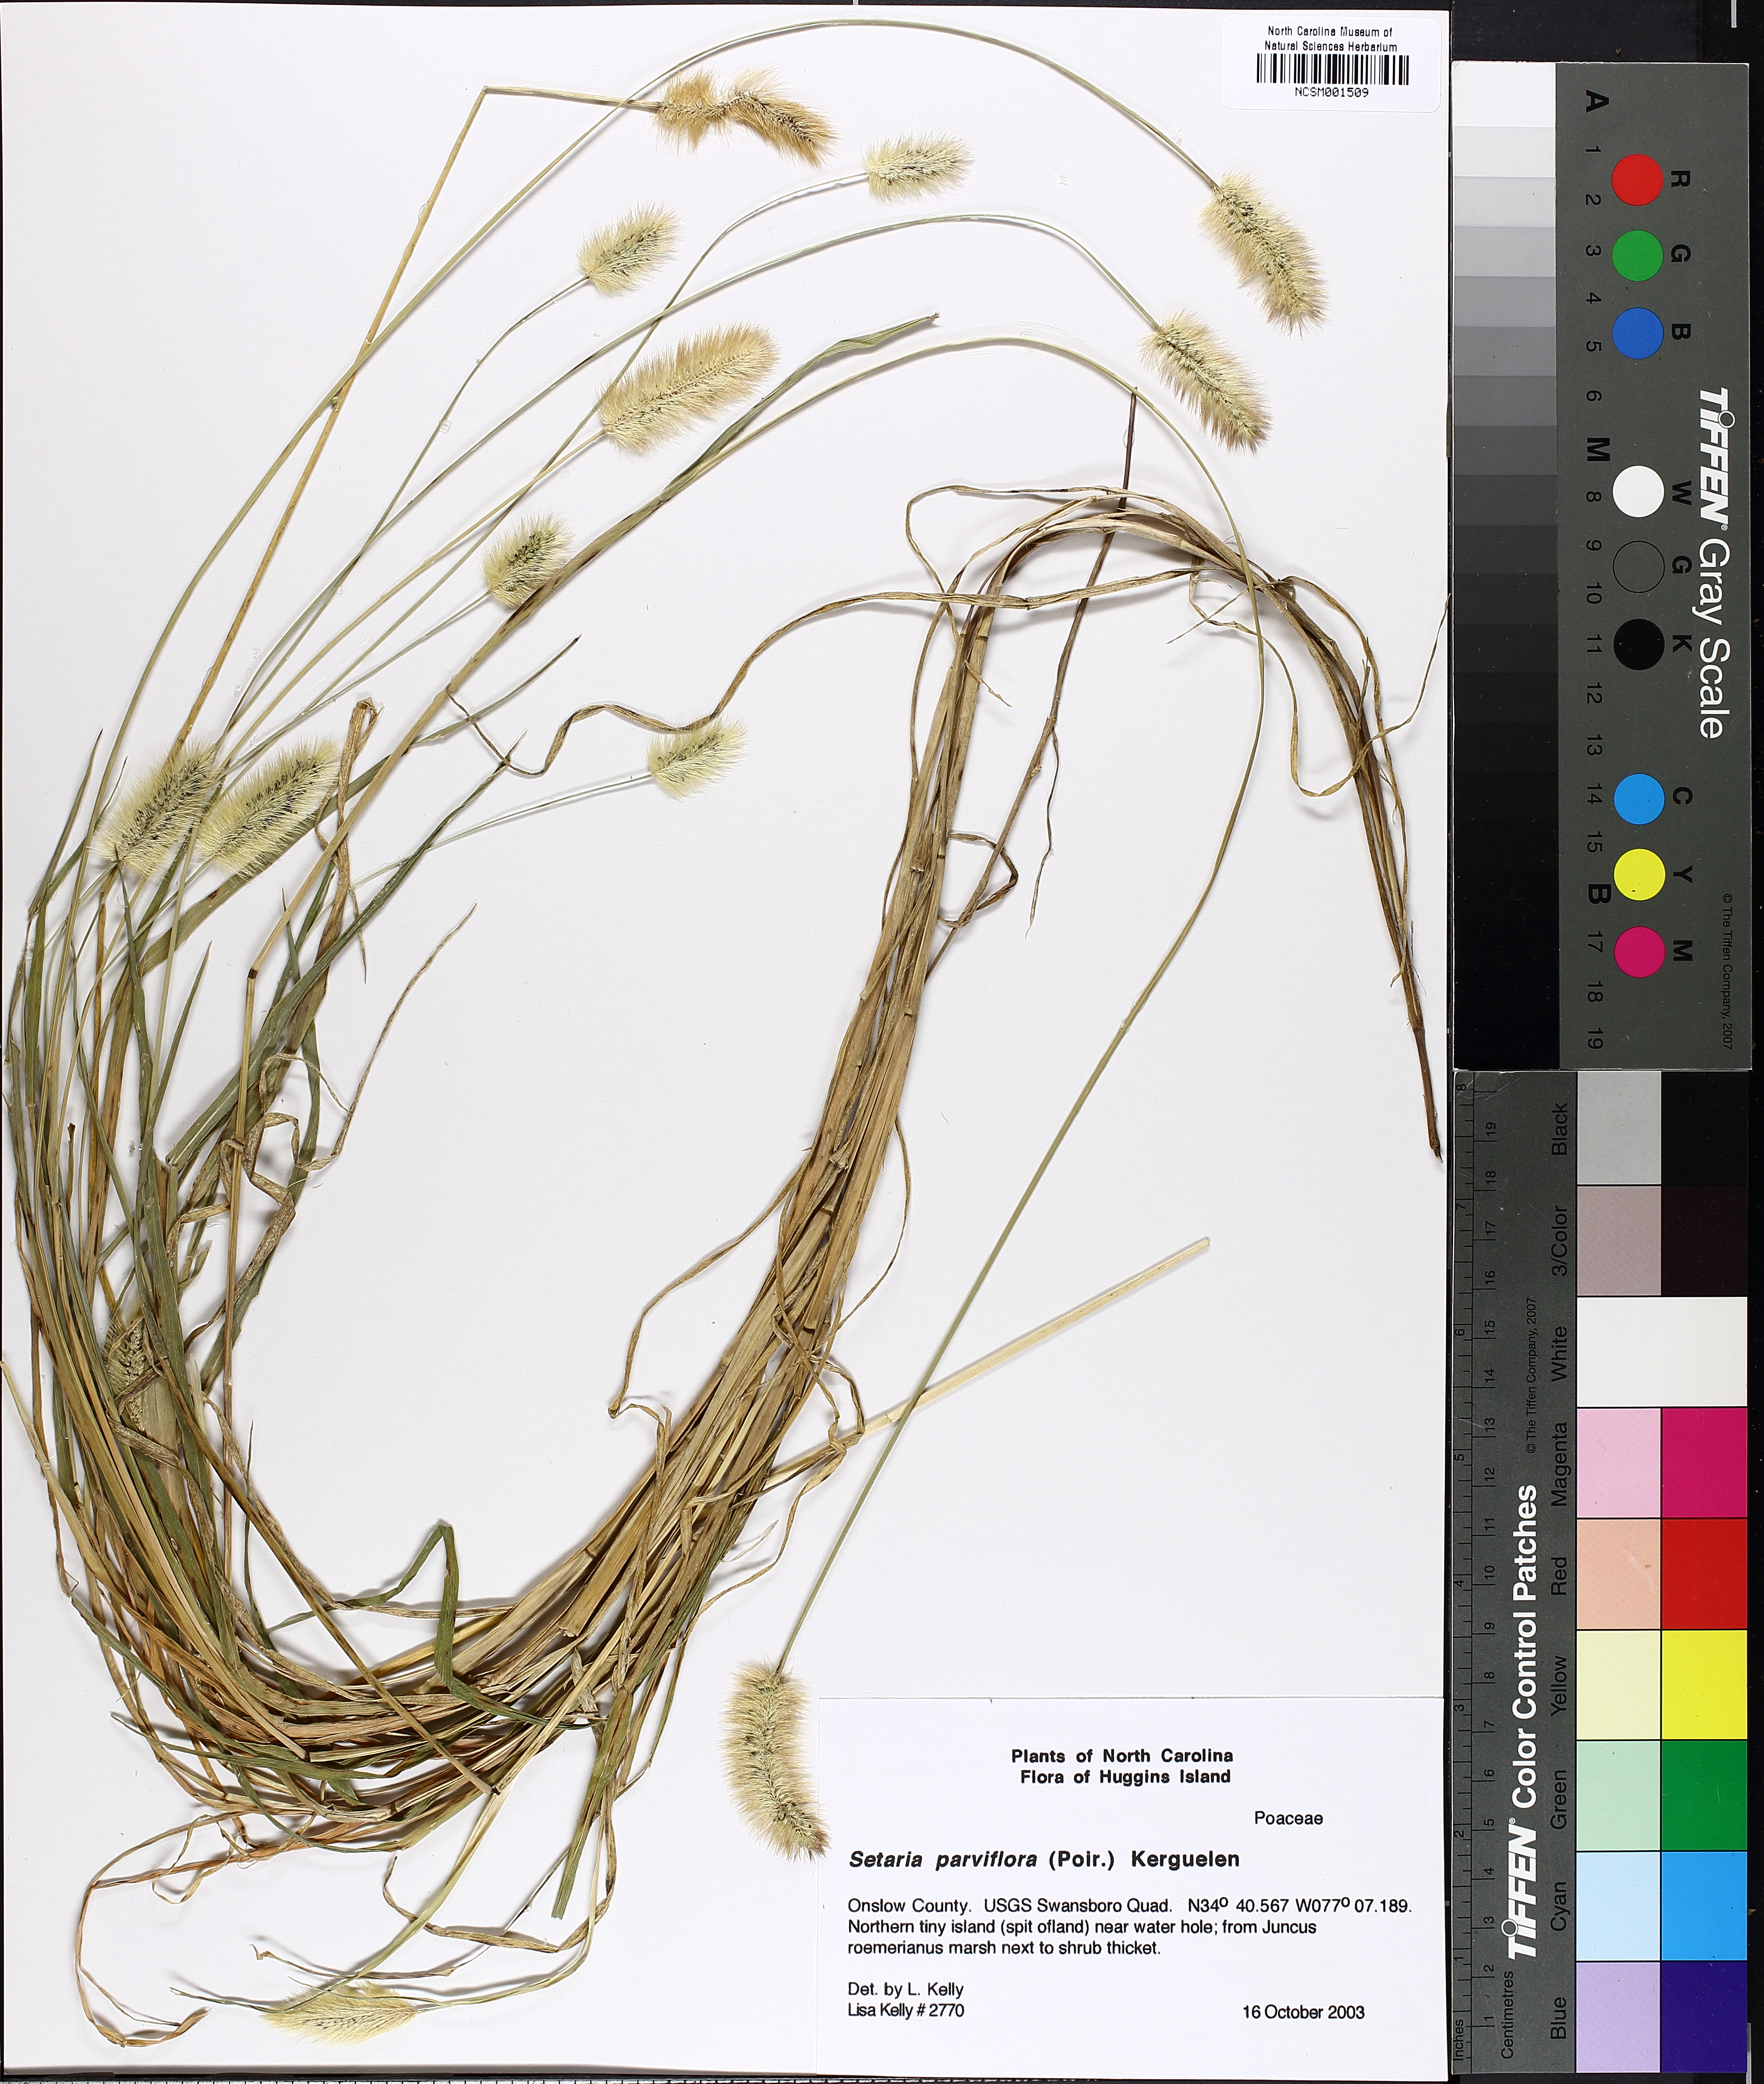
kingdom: Plantae
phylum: Tracheophyta
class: Liliopsida
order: Poales
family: Poaceae
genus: Setaria
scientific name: Setaria parviflora
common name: Knotroot bristle-grass
